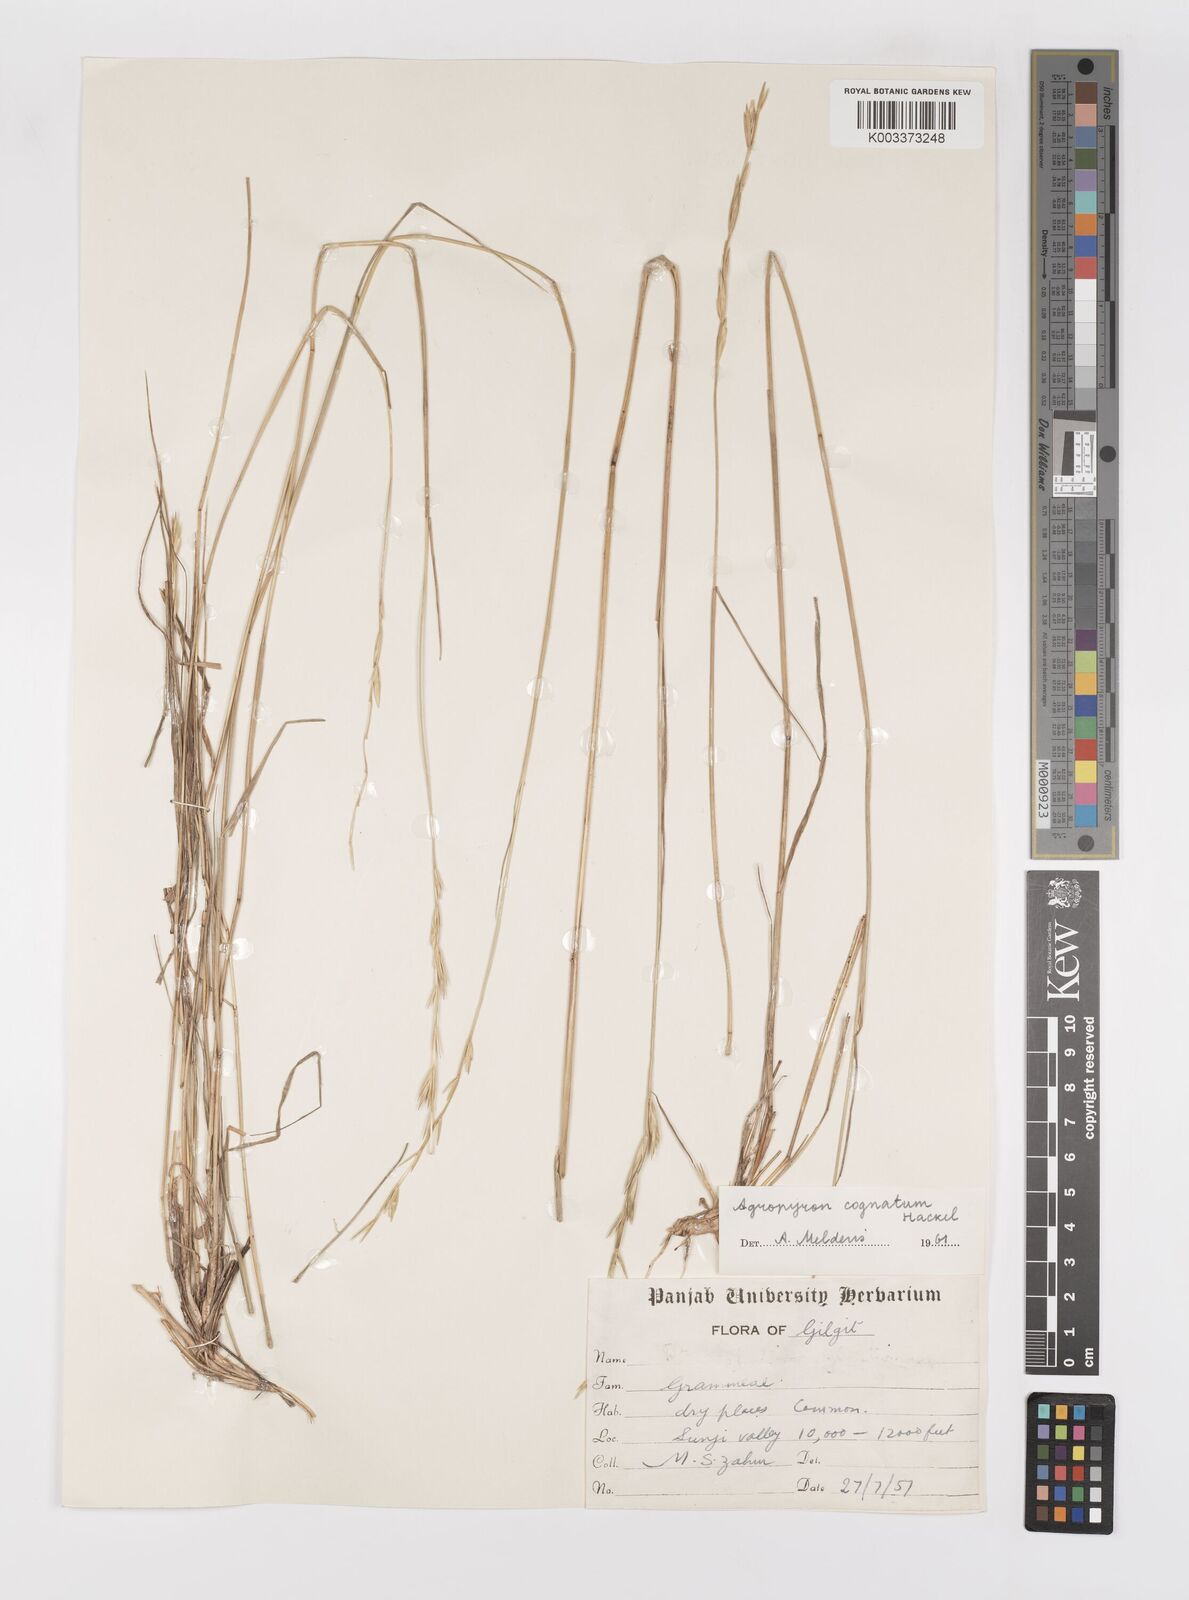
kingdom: Plantae
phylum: Tracheophyta
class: Liliopsida
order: Poales
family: Poaceae
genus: Pseudoroegneria
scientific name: Pseudoroegneria cognata
